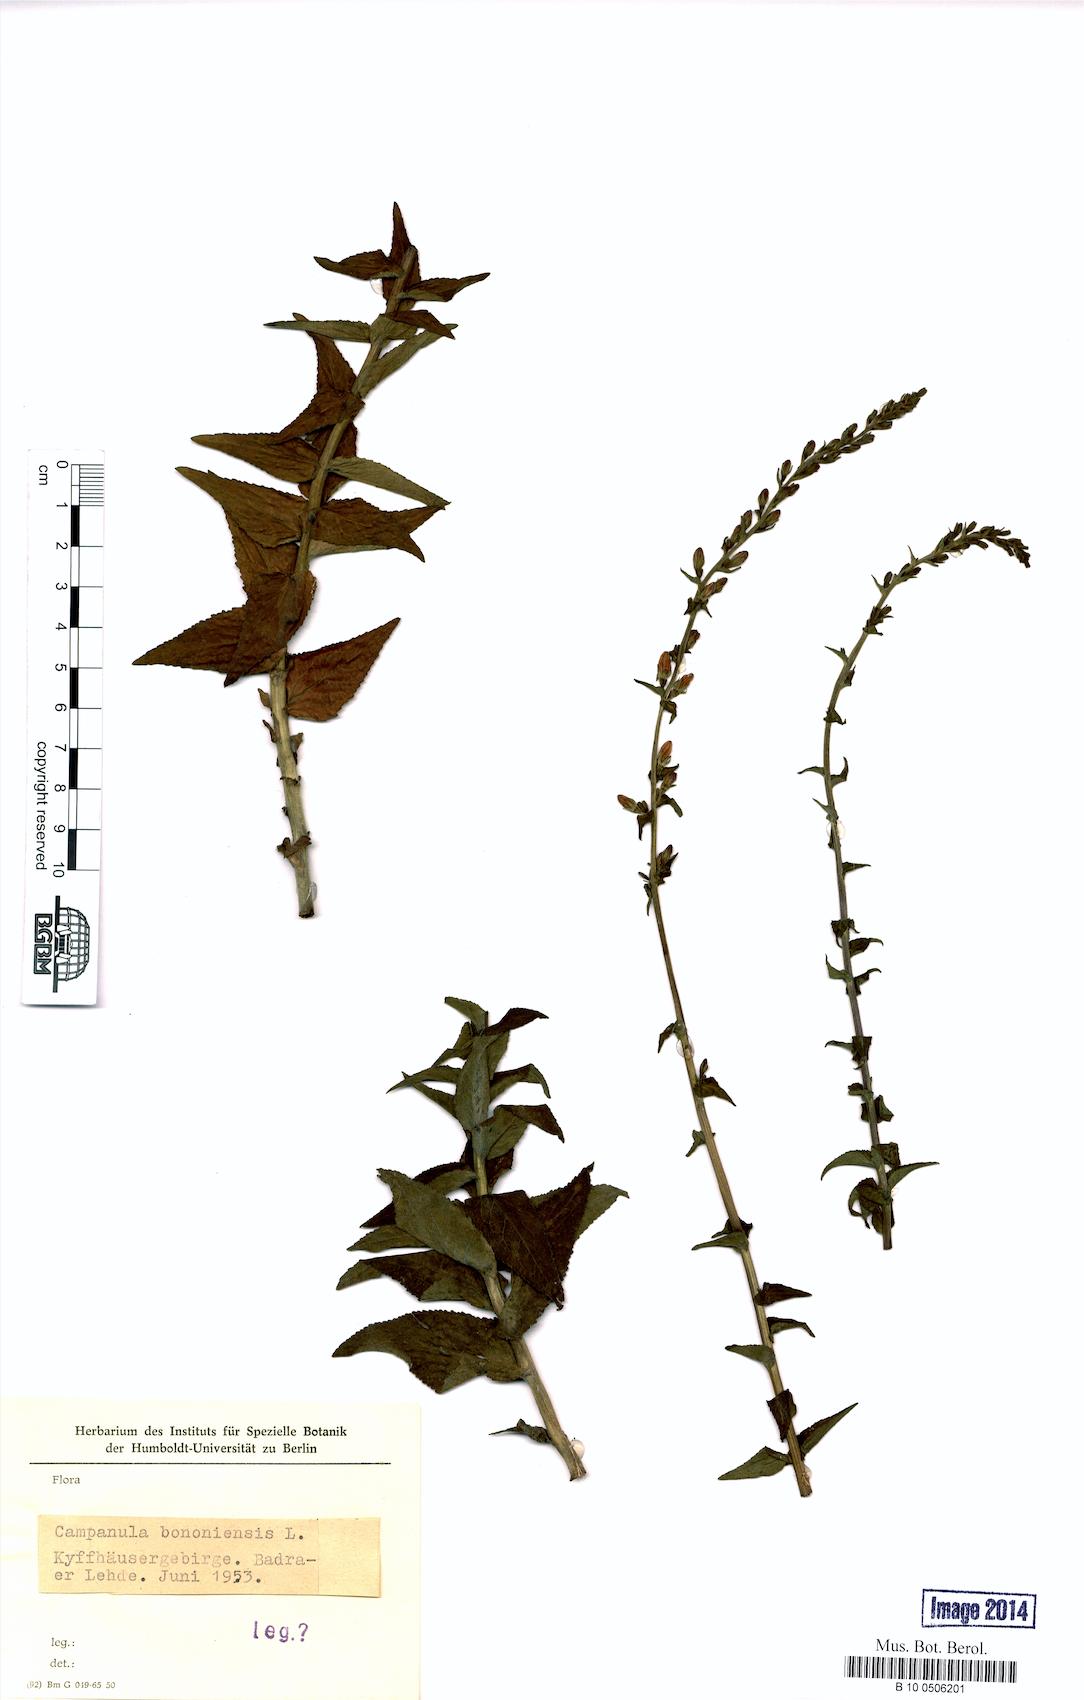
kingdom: Plantae
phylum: Tracheophyta
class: Magnoliopsida
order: Asterales
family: Campanulaceae
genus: Campanula
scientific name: Campanula bononiensis
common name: Pale bellflower
